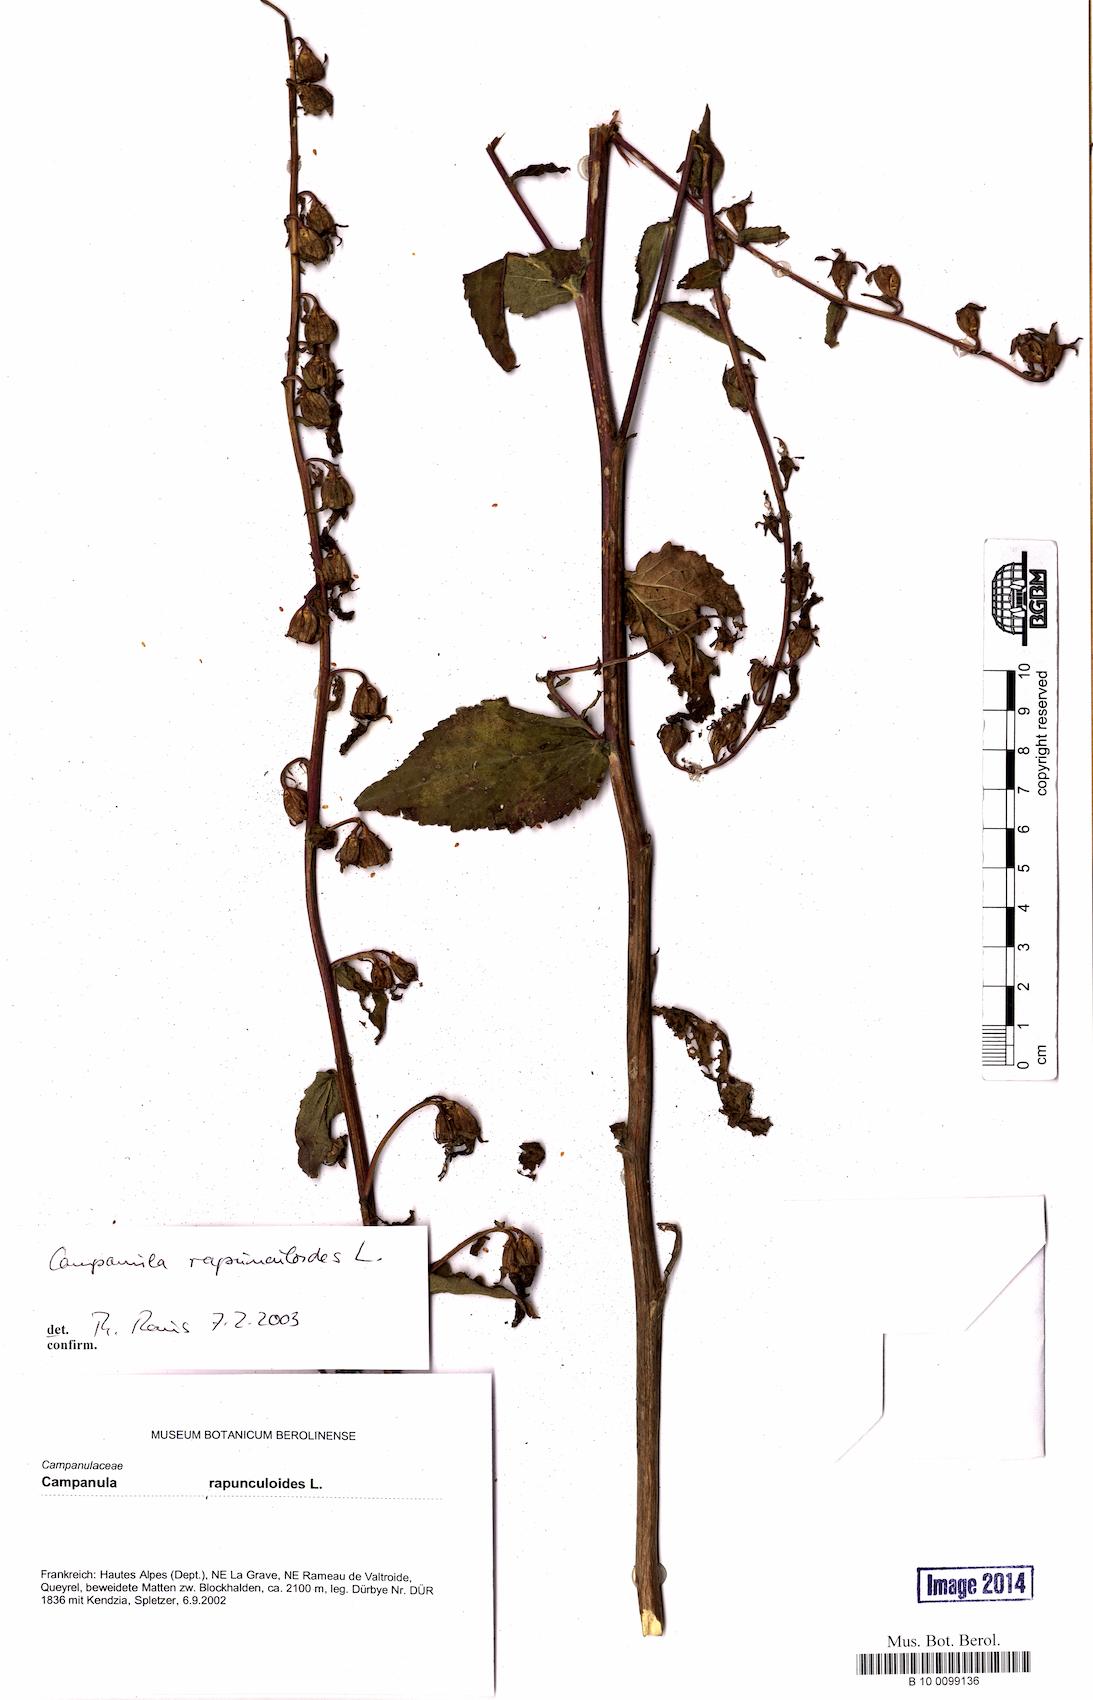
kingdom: Plantae
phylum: Tracheophyta
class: Magnoliopsida
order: Asterales
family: Campanulaceae
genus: Campanula
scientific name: Campanula rapunculoides
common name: Creeping bellflower
